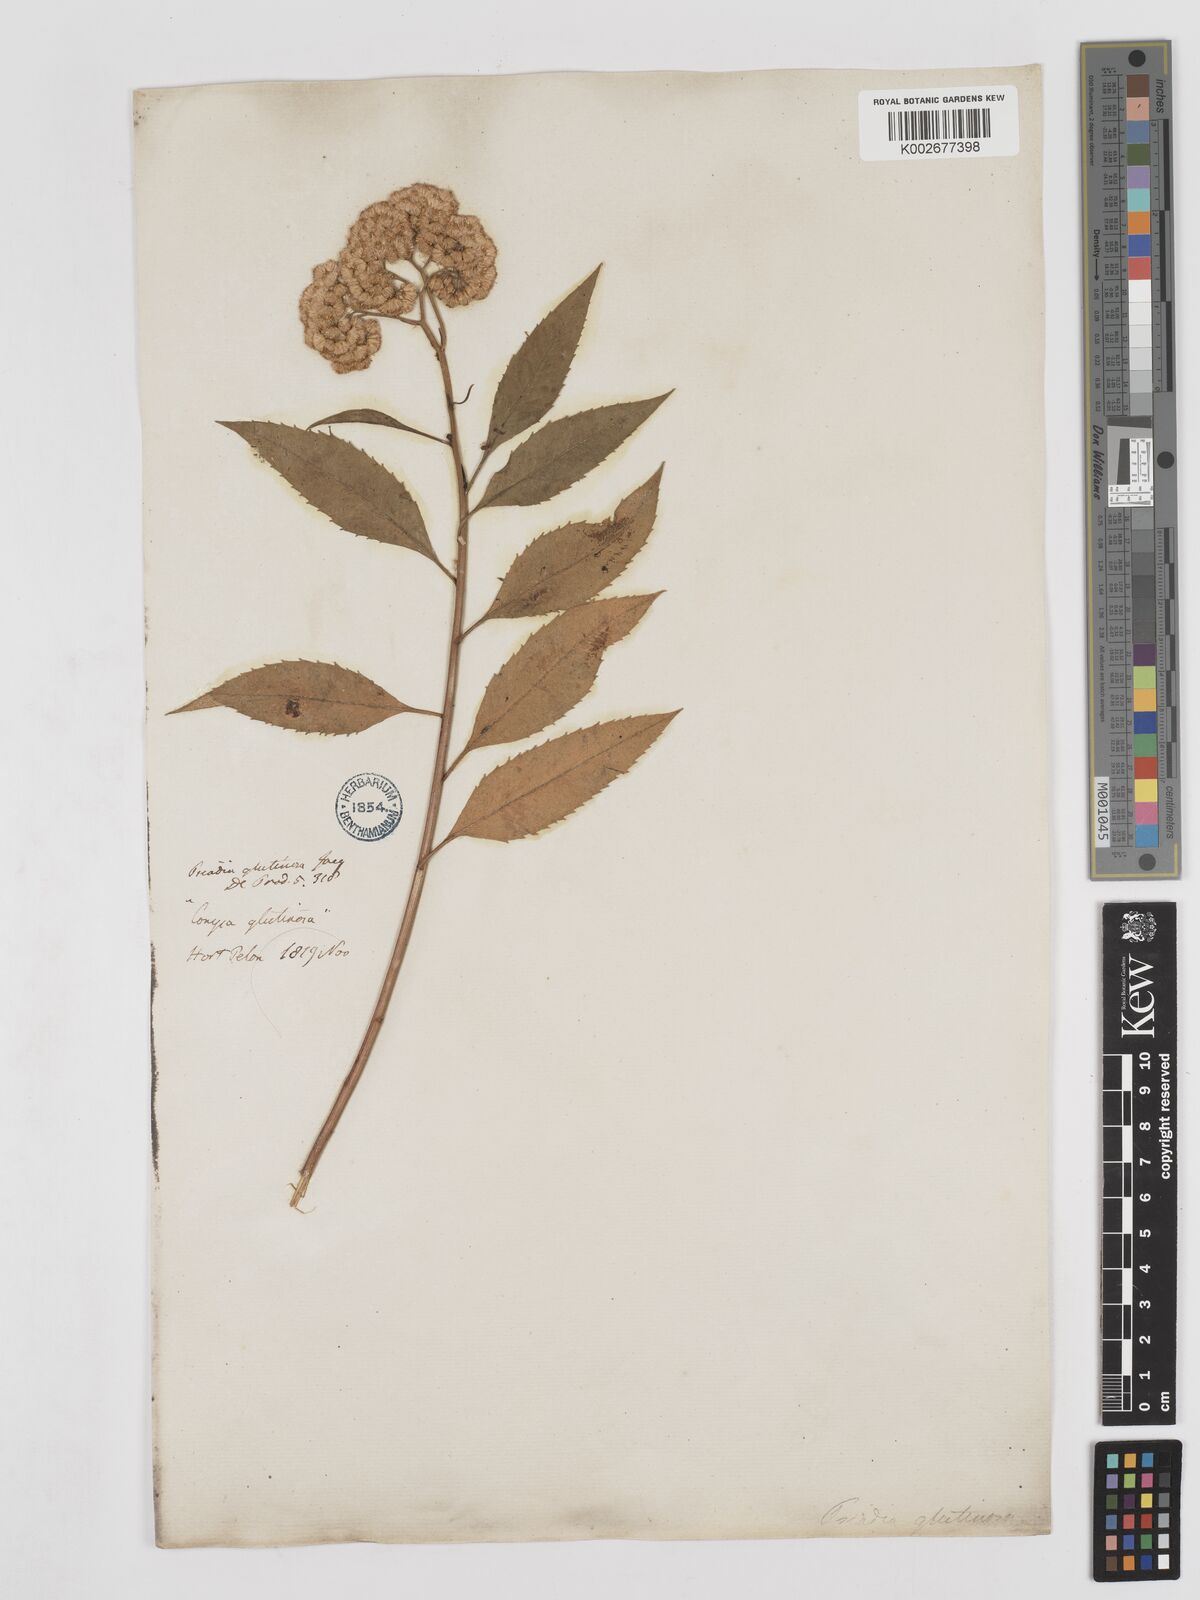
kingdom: Plantae
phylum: Tracheophyta
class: Magnoliopsida
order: Asterales
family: Asteraceae
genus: Psiadia
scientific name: Psiadia glutinosa
